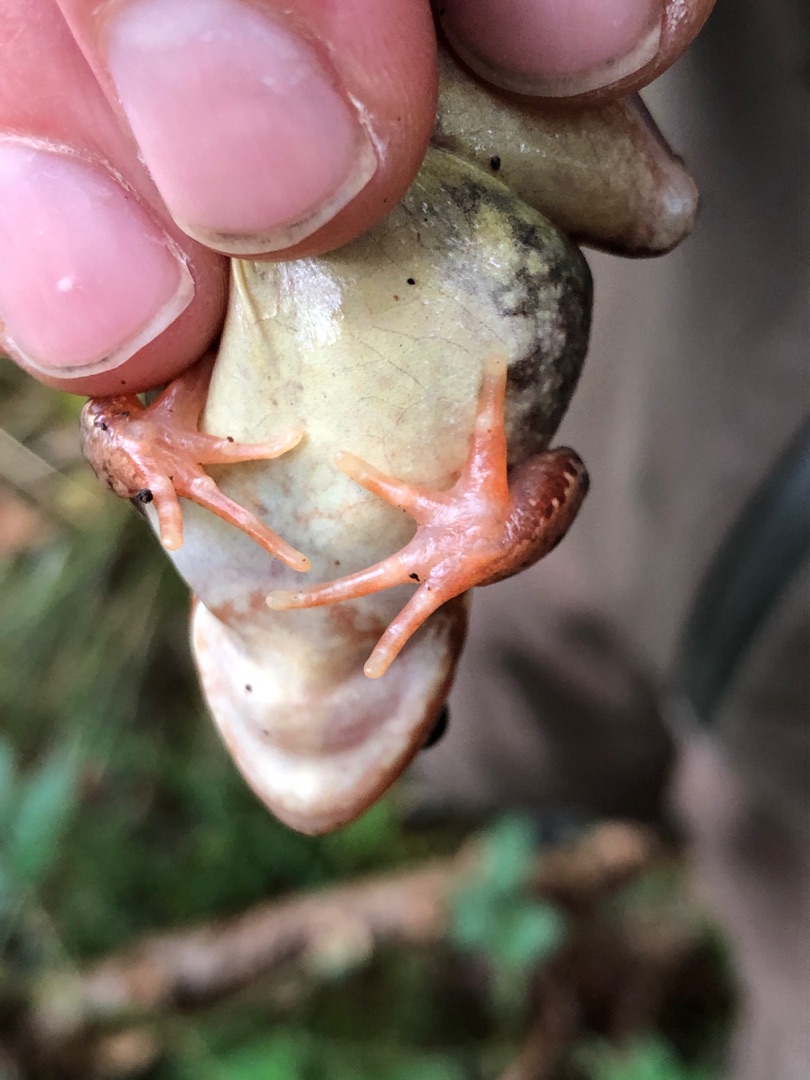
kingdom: Animalia
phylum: Chordata
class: Amphibia
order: Anura
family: Ranidae
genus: Rana
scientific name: Rana temporaria
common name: Butsnudet frø
